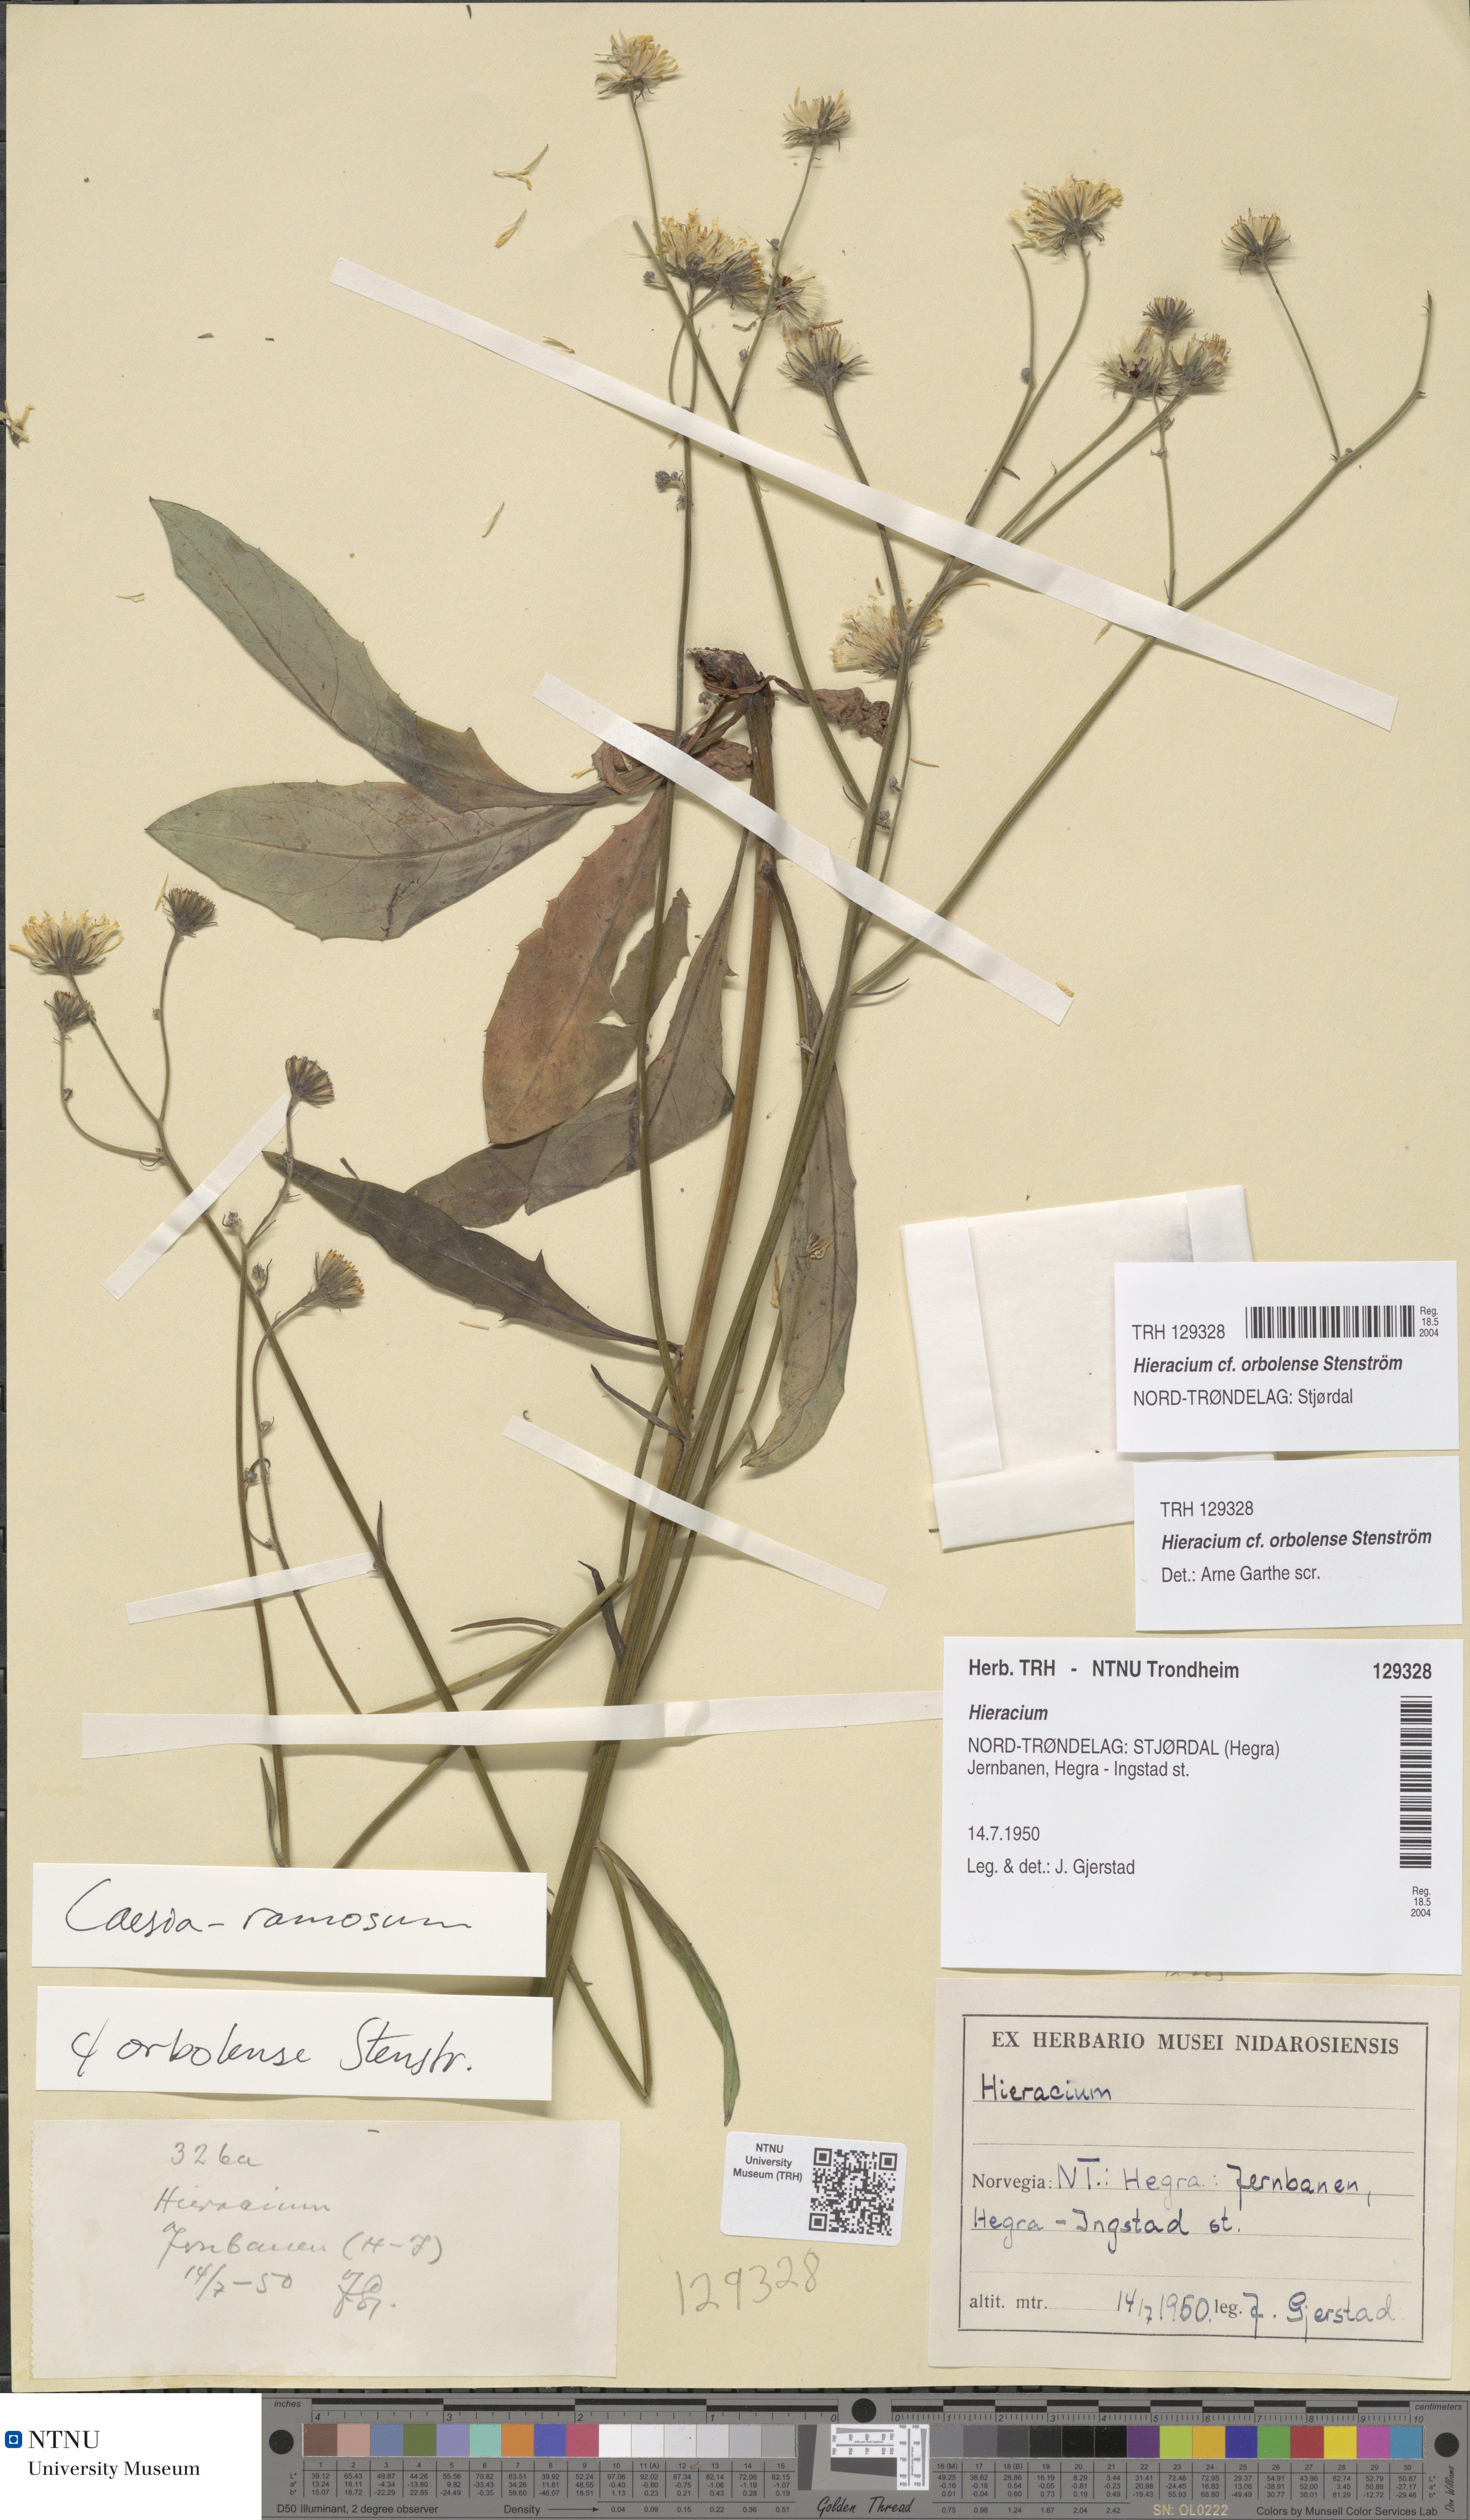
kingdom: Plantae
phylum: Tracheophyta
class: Magnoliopsida
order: Asterales
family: Asteraceae
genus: Hieracium
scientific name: Hieracium orbolense
